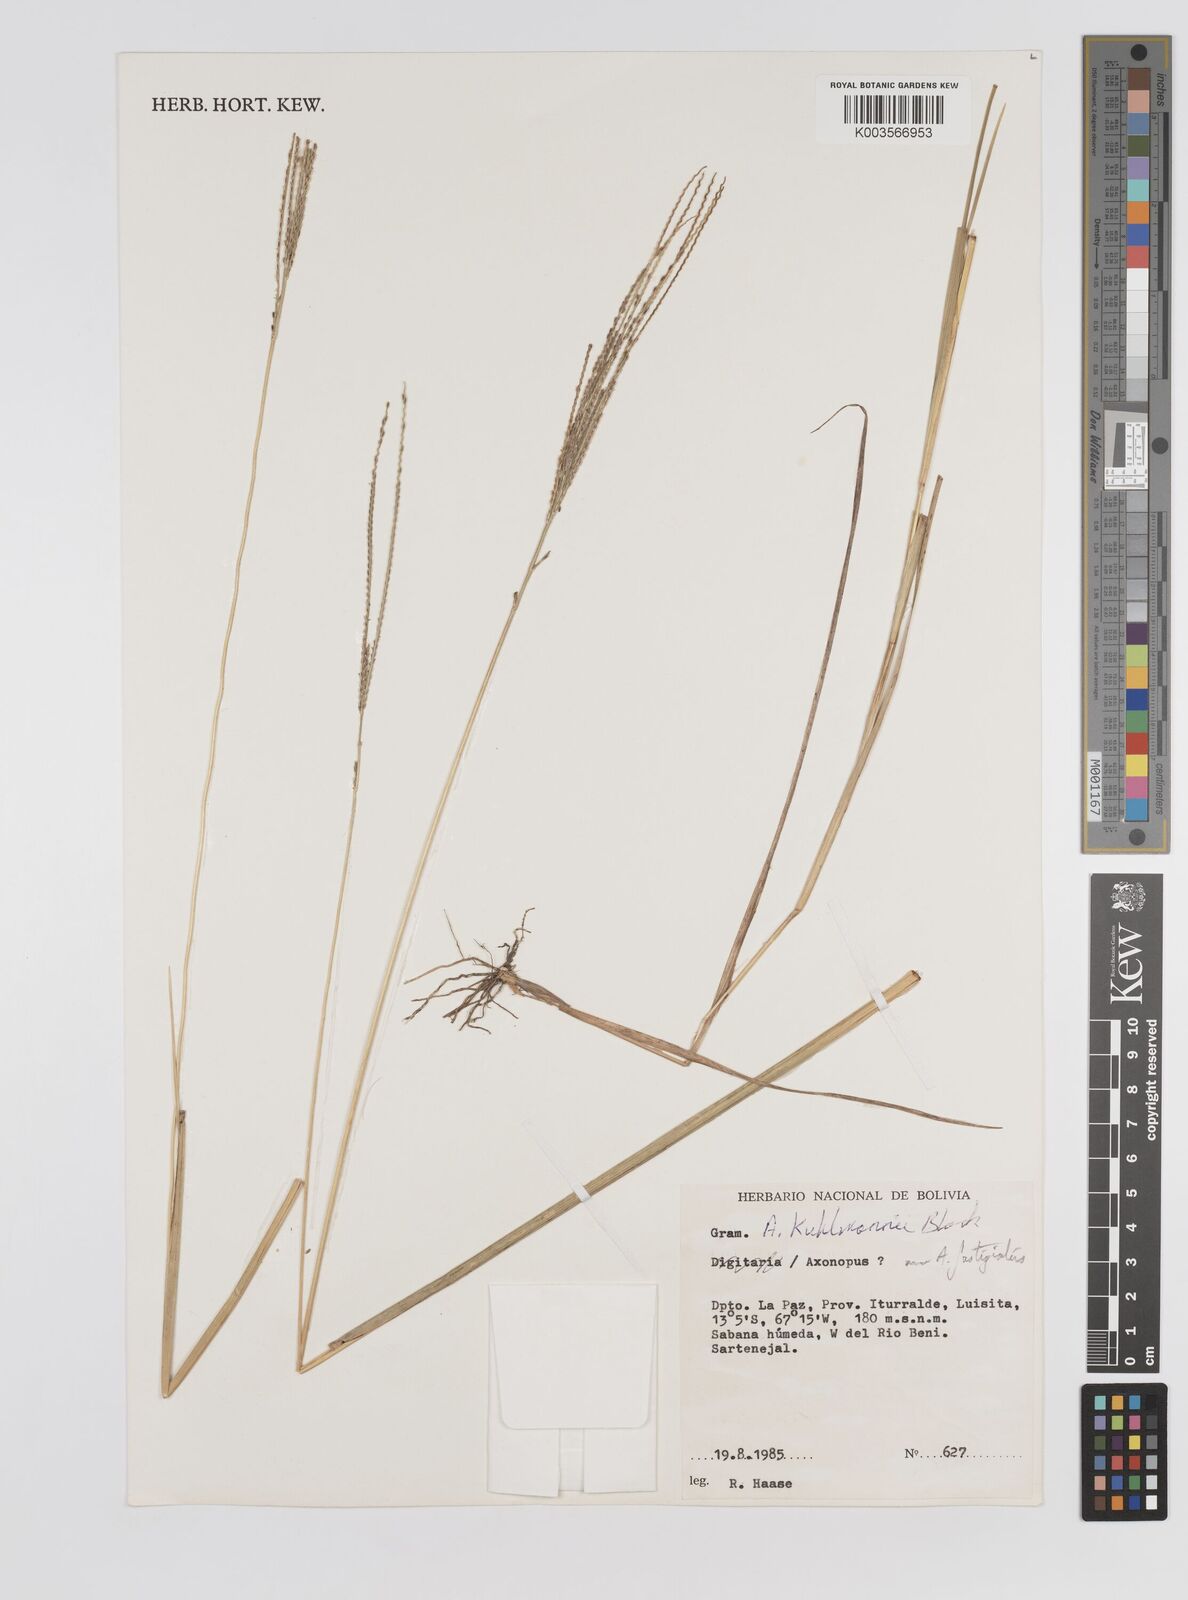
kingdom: Plantae
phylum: Tracheophyta
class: Liliopsida
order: Poales
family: Poaceae
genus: Axonopus
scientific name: Axonopus kuhlmannii
